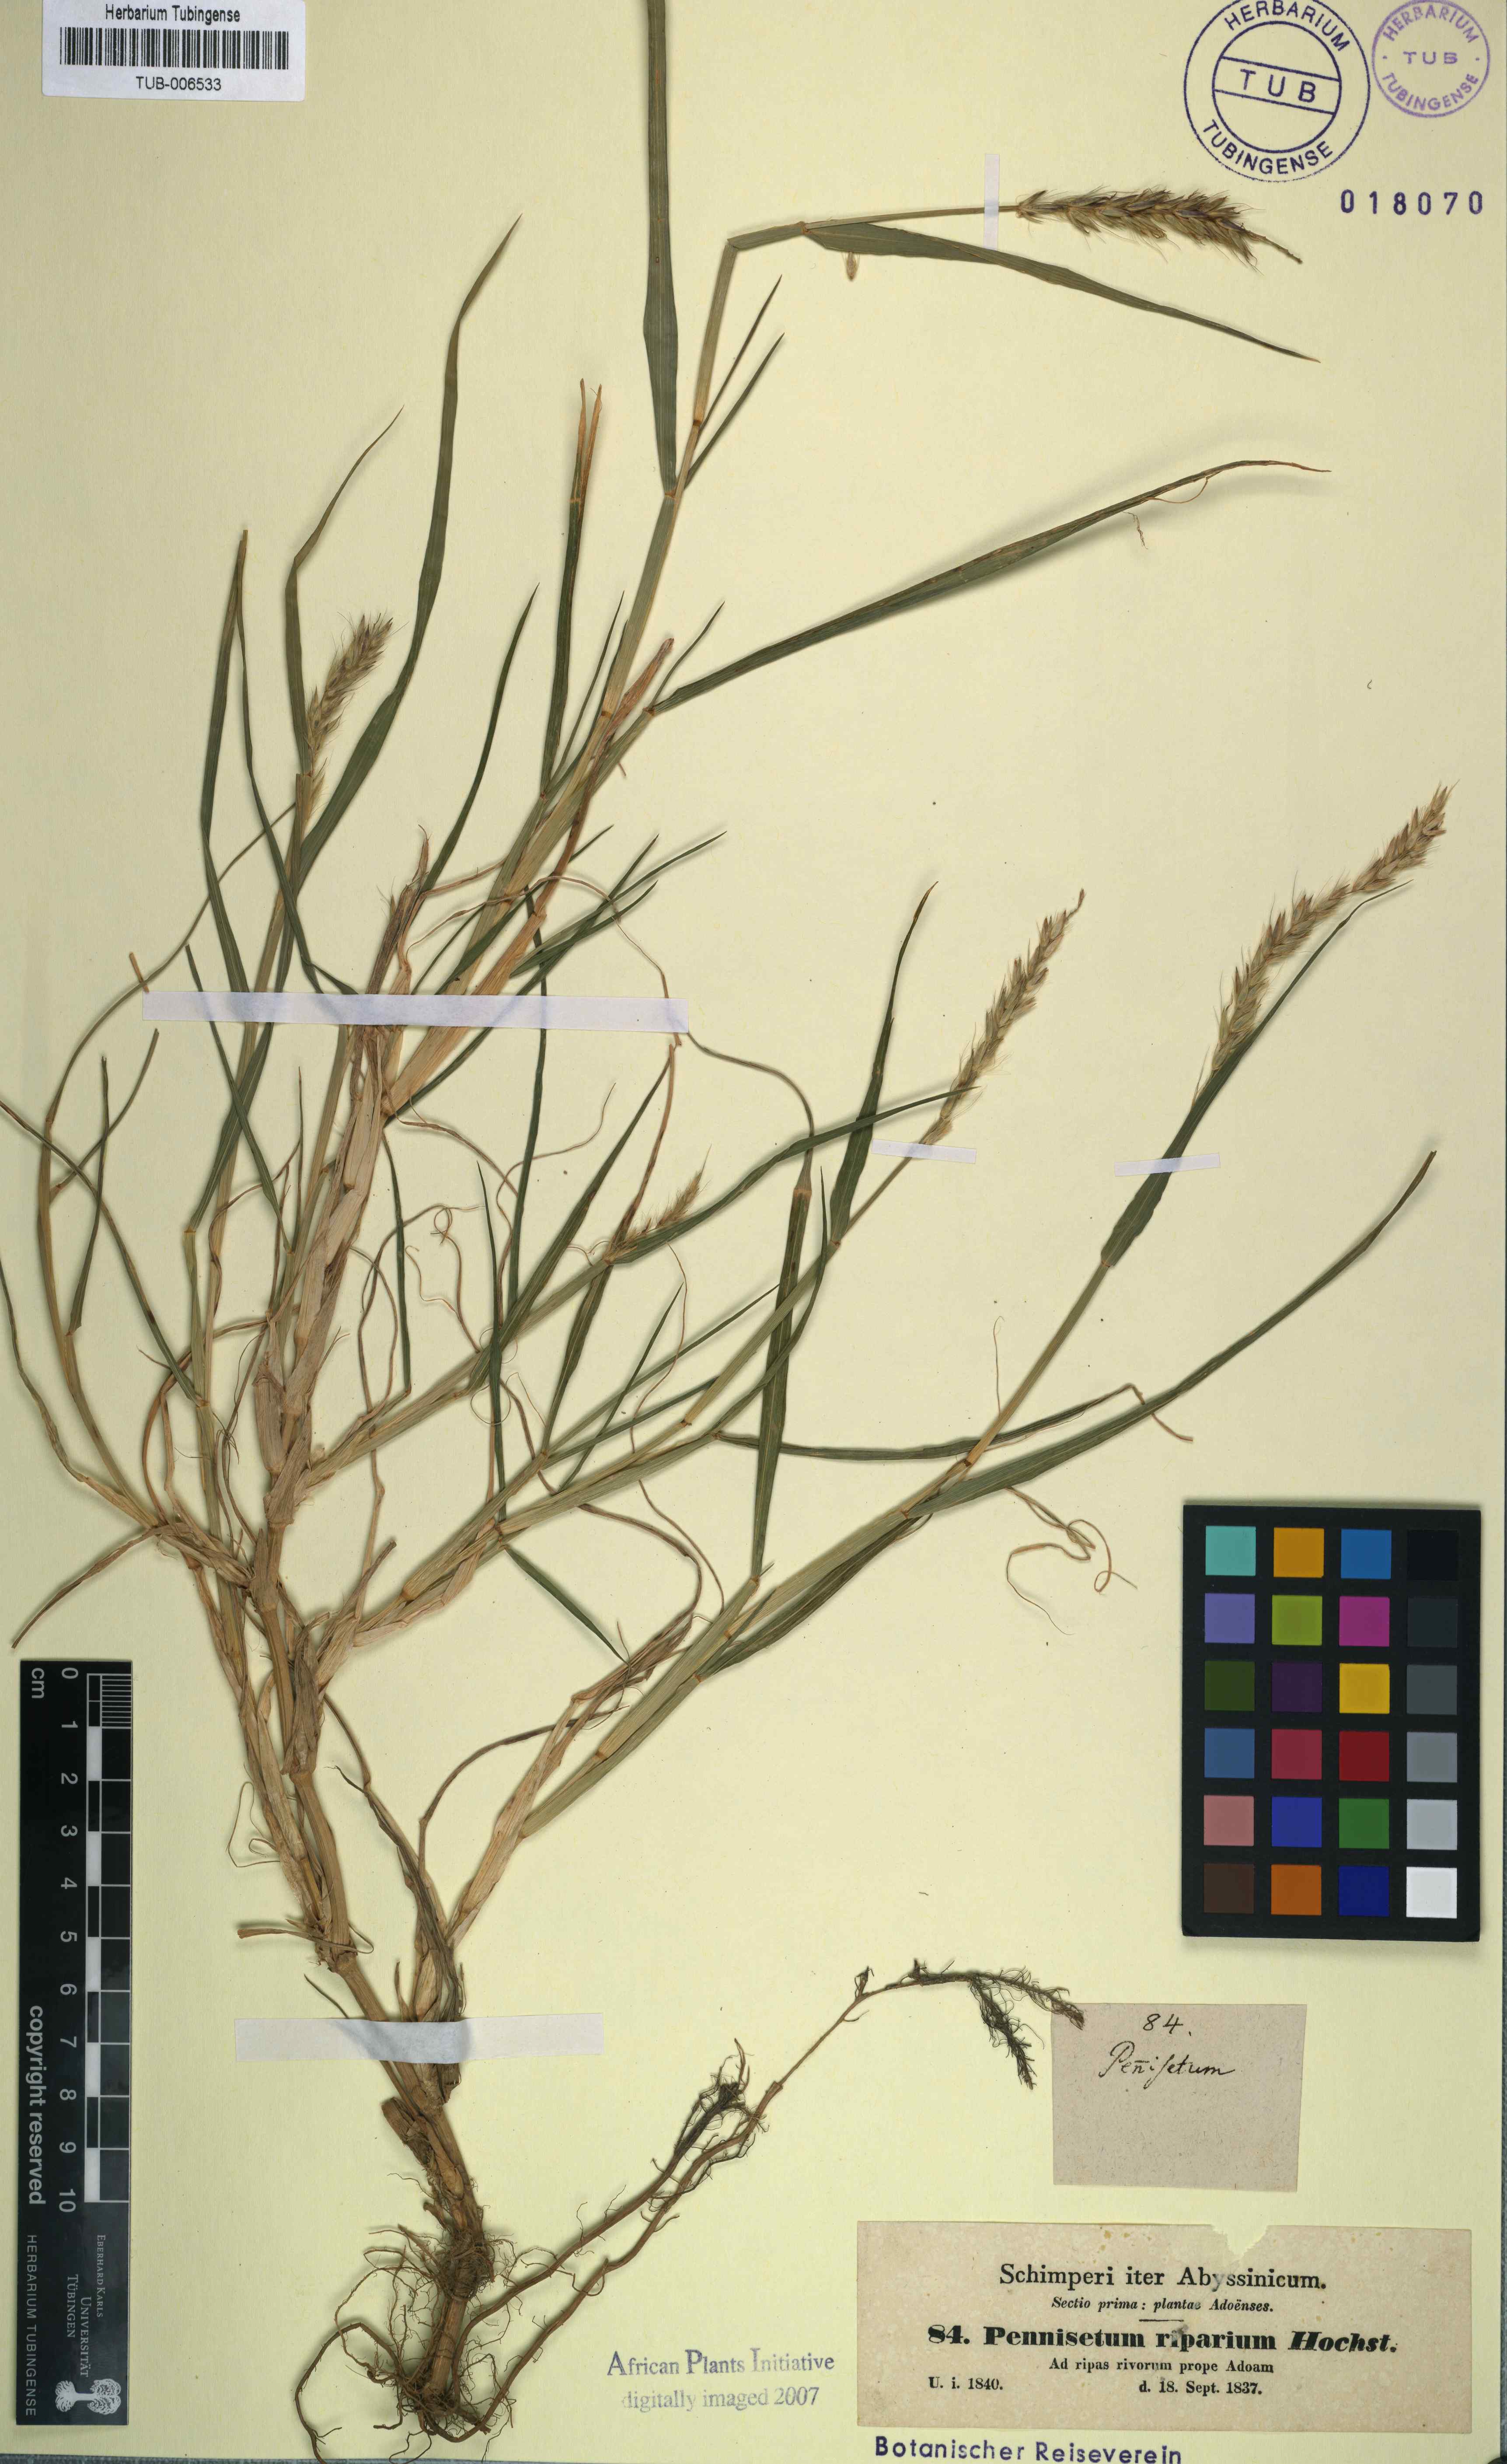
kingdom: Plantae
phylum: Tracheophyta
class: Liliopsida
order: Poales
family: Poaceae
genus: Cenchrus
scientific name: Cenchrus riparius
